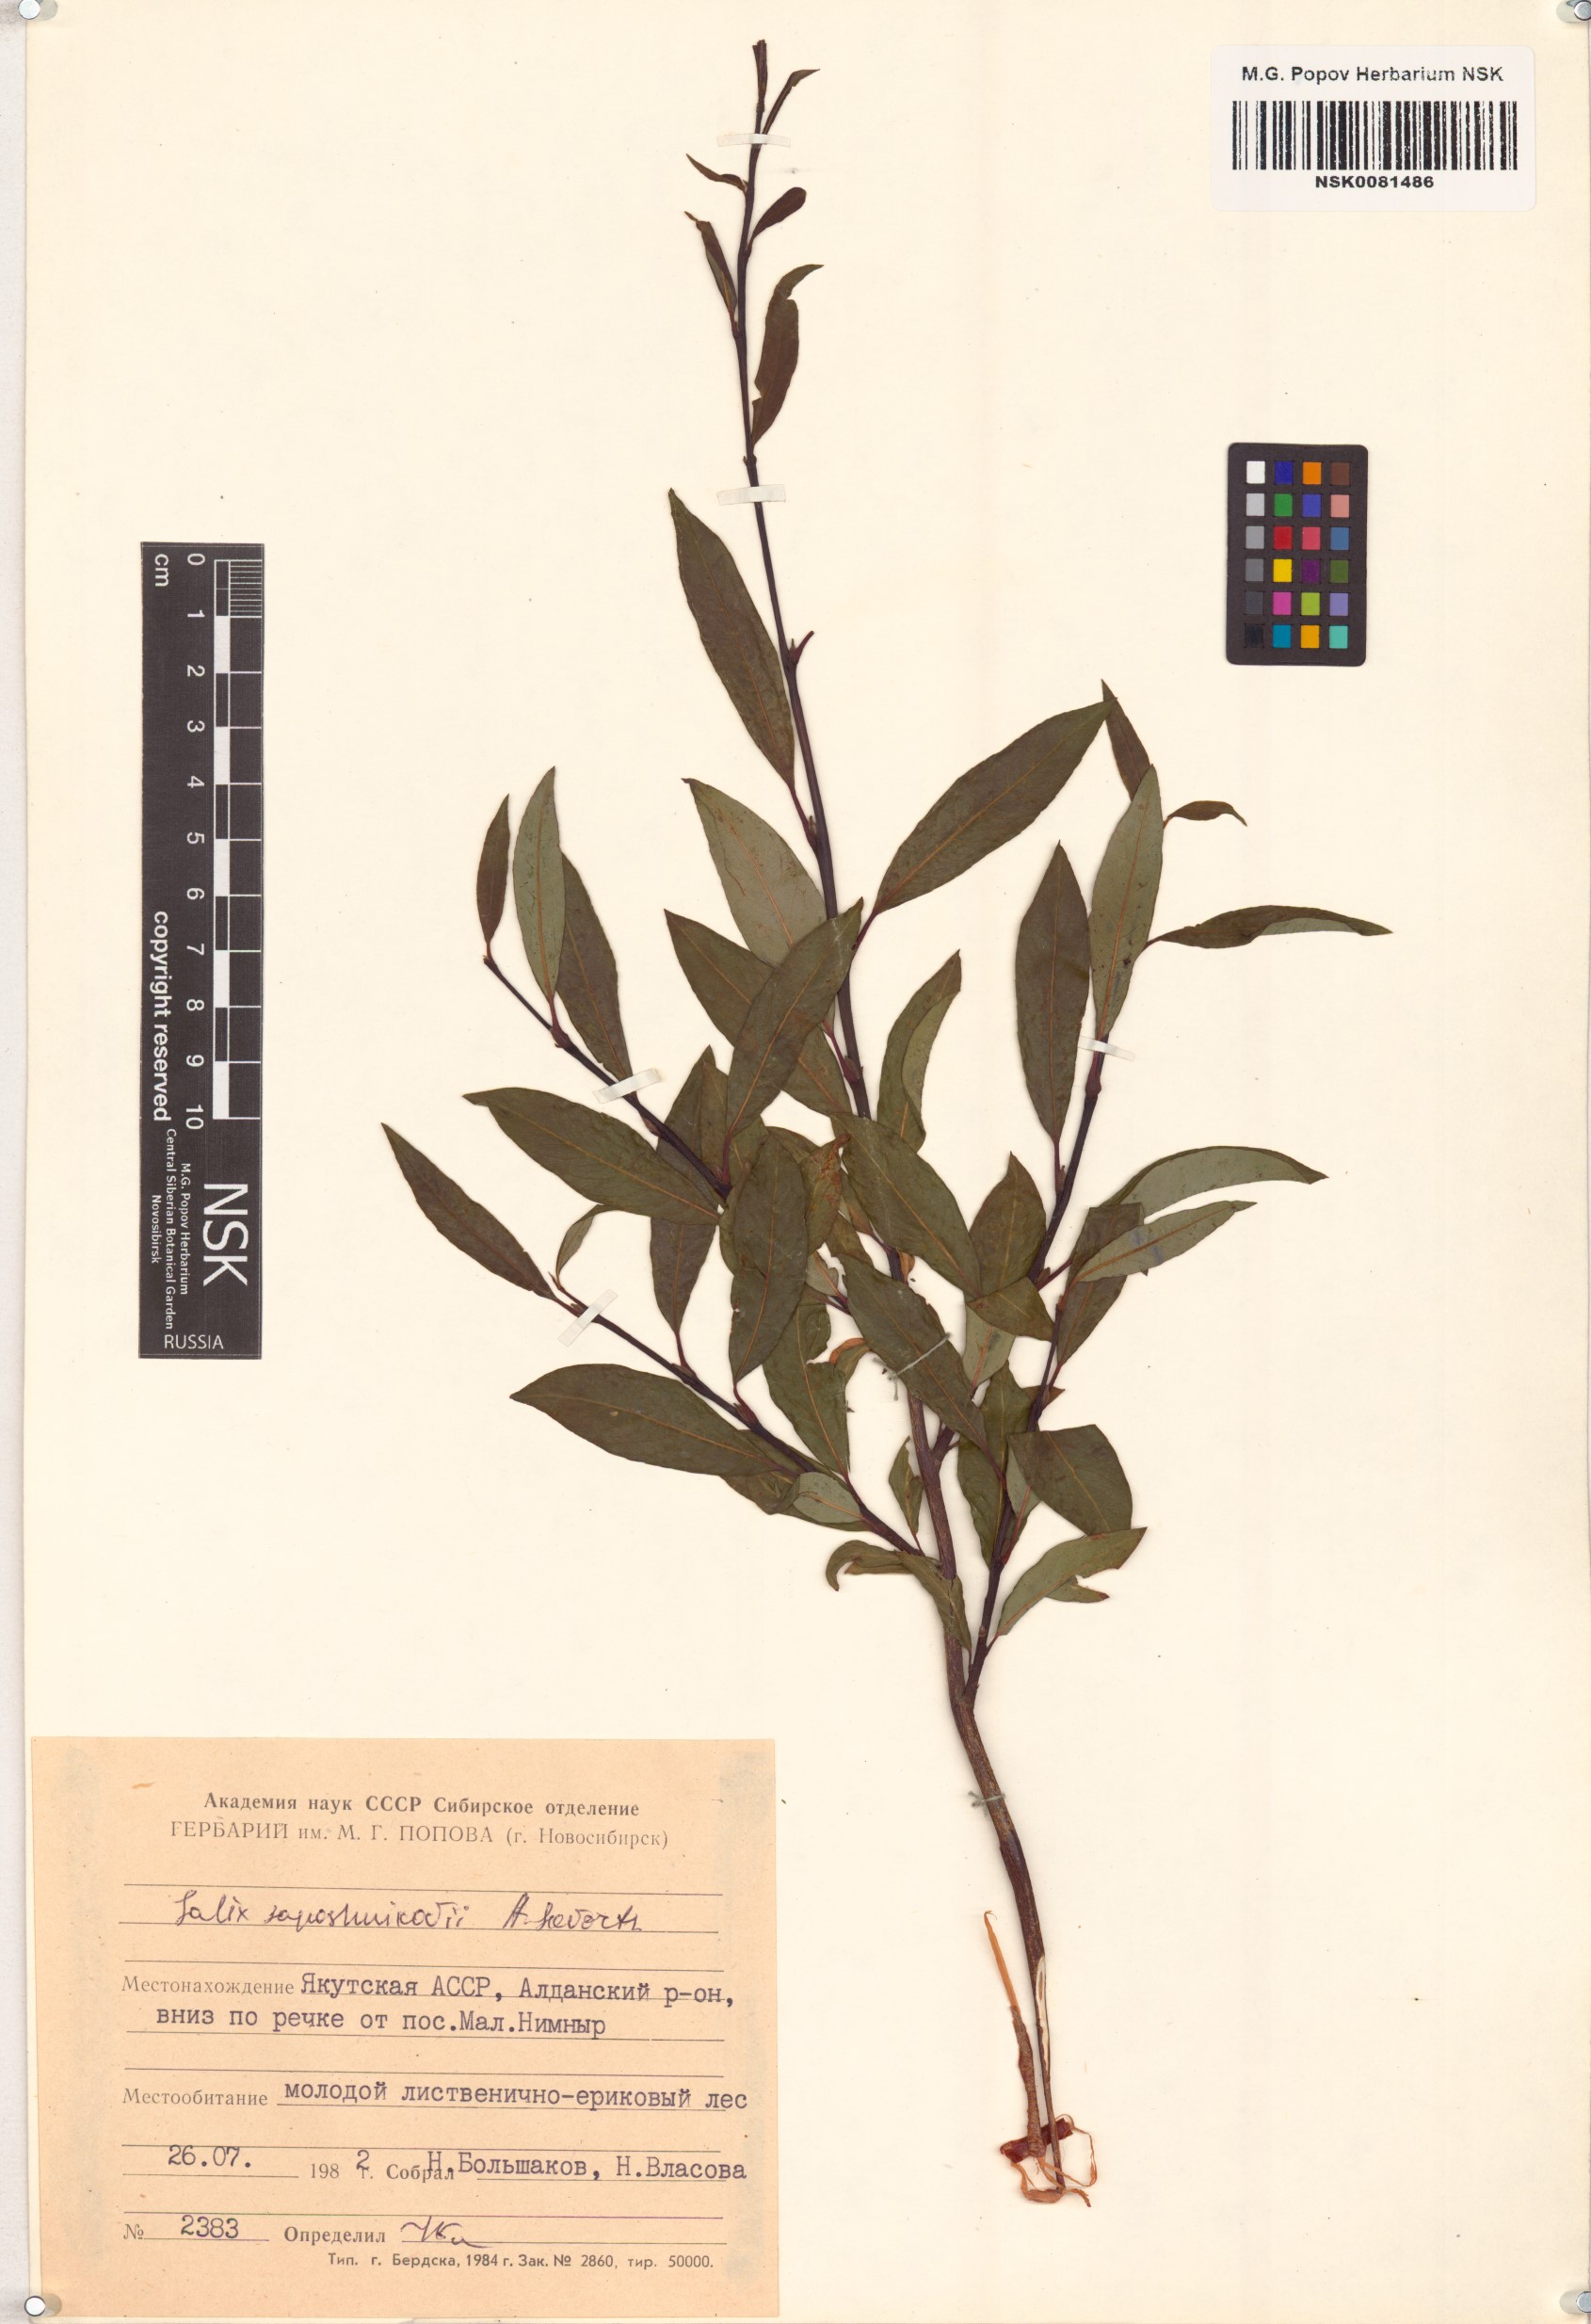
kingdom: Plantae
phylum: Tracheophyta
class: Magnoliopsida
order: Malpighiales
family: Salicaceae
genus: Salix
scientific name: Salix saposhnikovii
